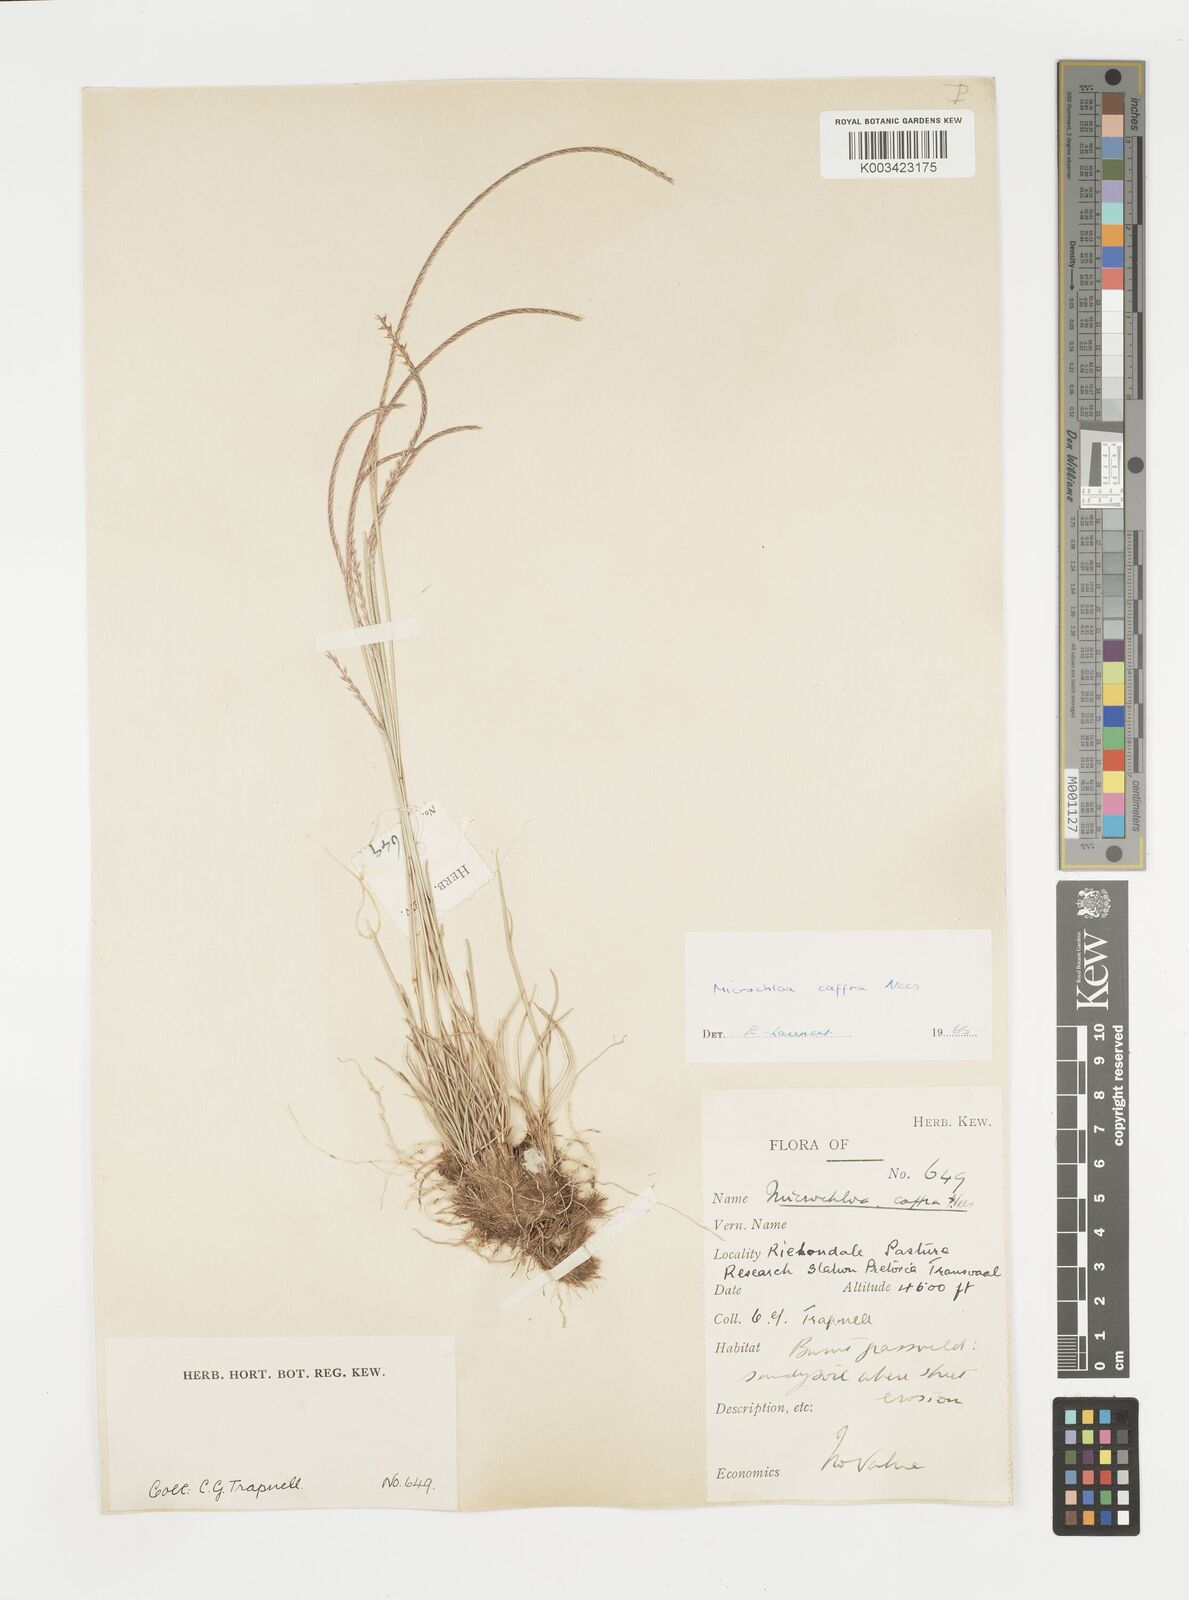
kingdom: Plantae
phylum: Tracheophyta
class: Liliopsida
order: Poales
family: Poaceae
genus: Microchloa
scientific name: Microchloa caffra
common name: Pincushion grass
